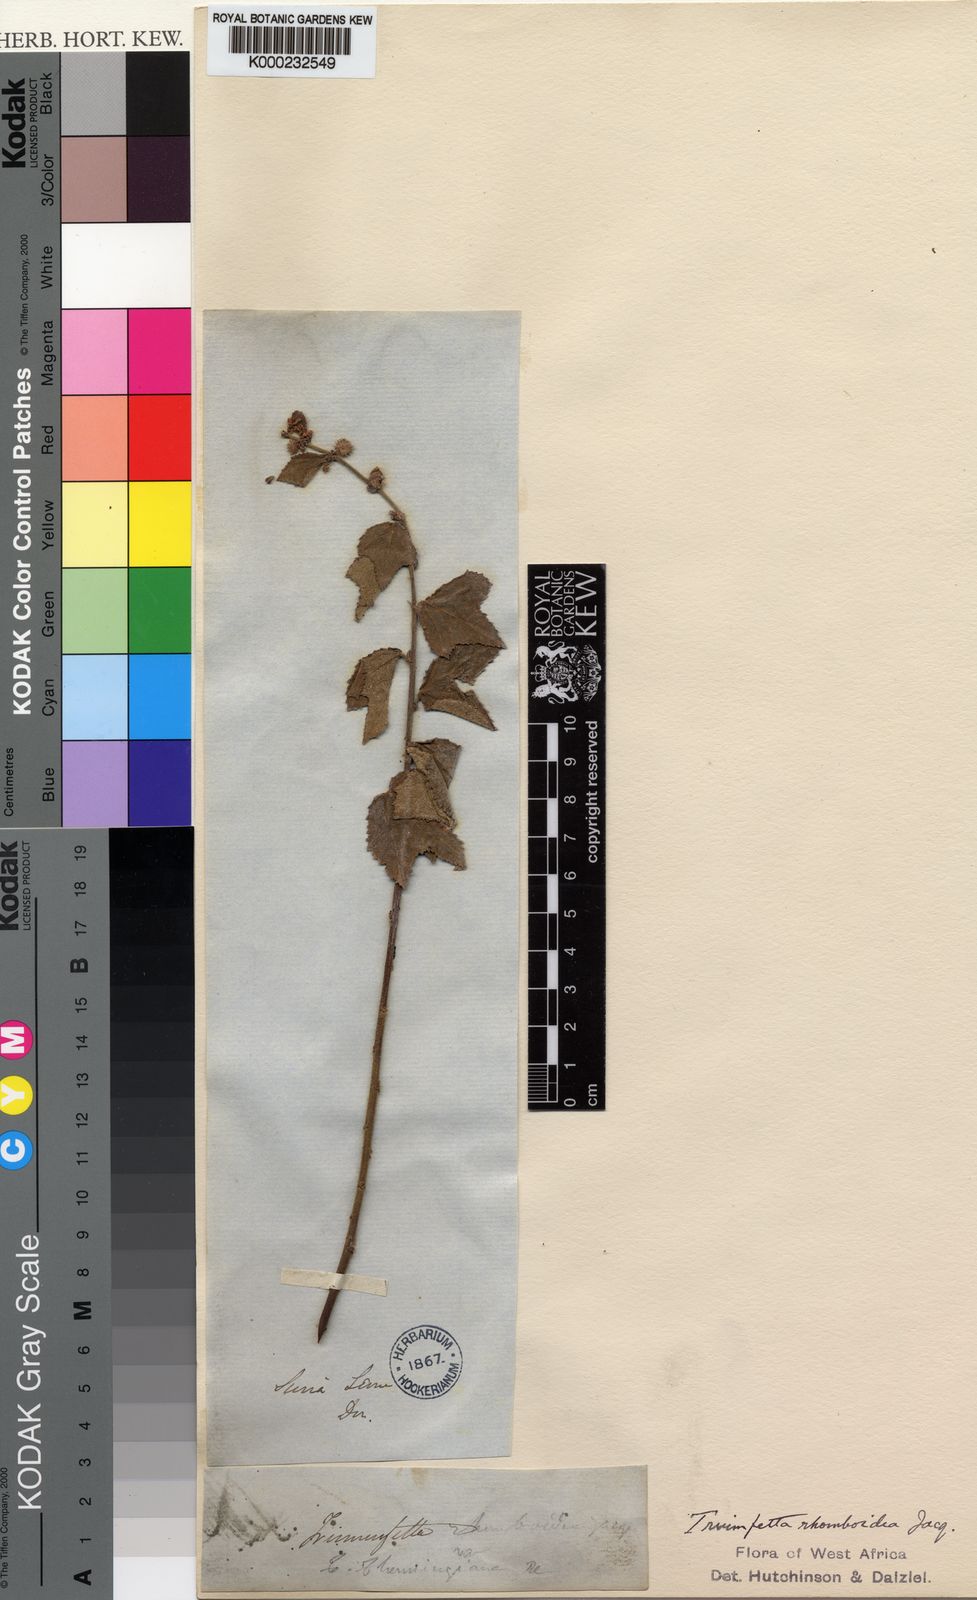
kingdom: Plantae
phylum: Tracheophyta
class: Magnoliopsida
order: Malvales
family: Malvaceae
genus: Triumfetta
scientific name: Triumfetta rhomboidea
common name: Diamond burbark
